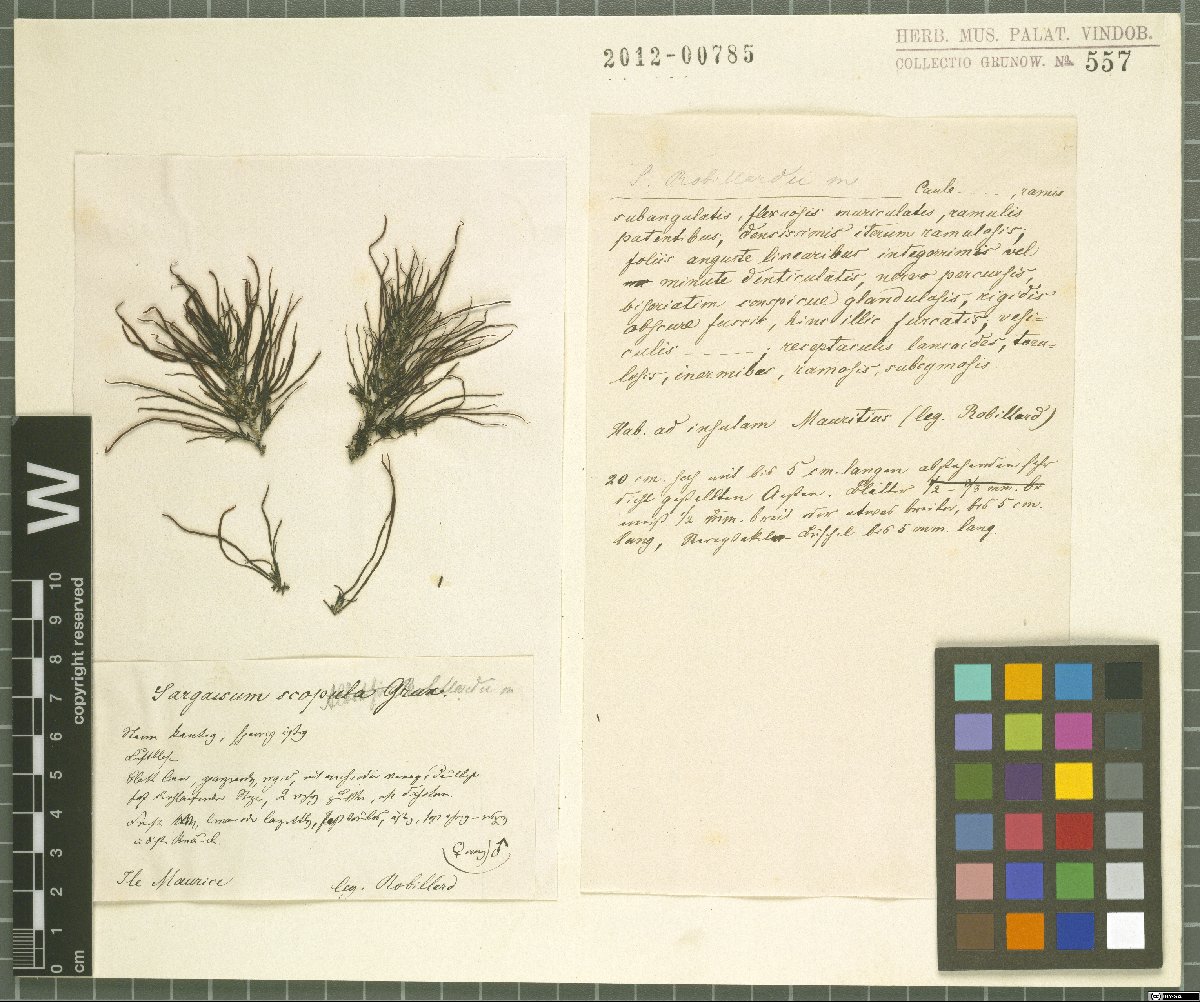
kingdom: Chromista
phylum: Ochrophyta
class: Phaeophyceae
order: Fucales
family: Sargassaceae
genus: Sargassum
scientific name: Sargassum
